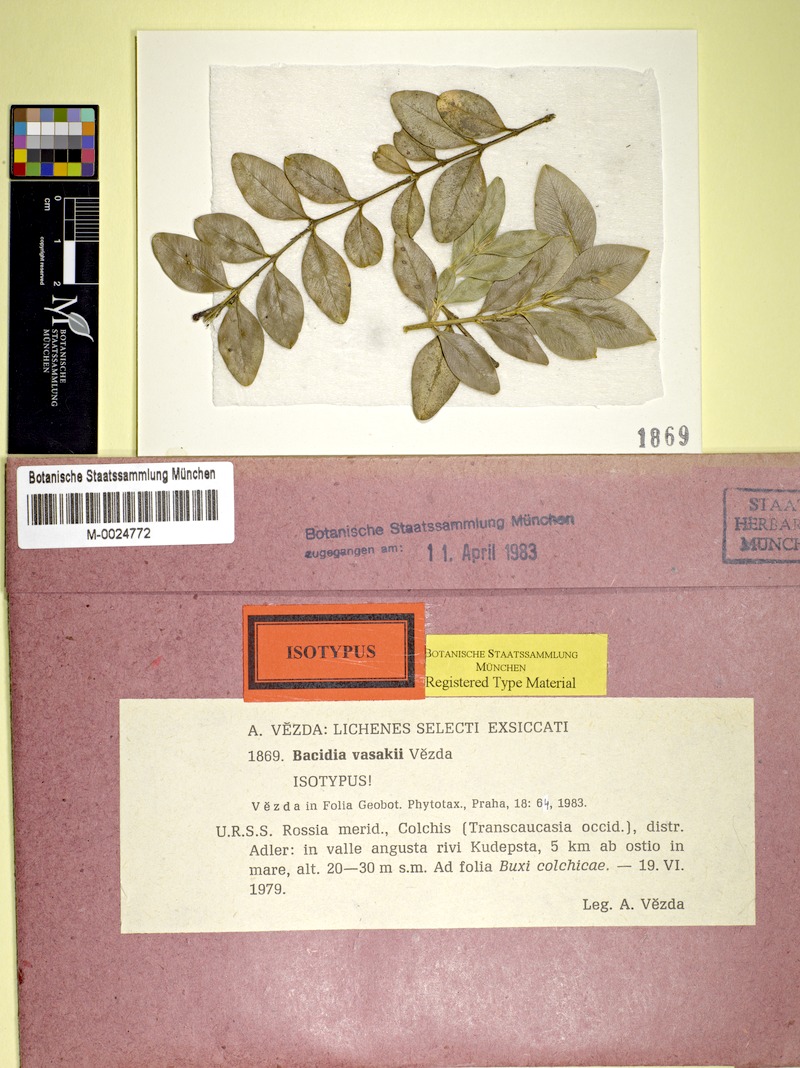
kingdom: Fungi
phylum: Ascomycota
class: Lecanoromycetes
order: Lecanorales
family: Ramalinaceae
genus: Bacidina
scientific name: Bacidina vasakii
